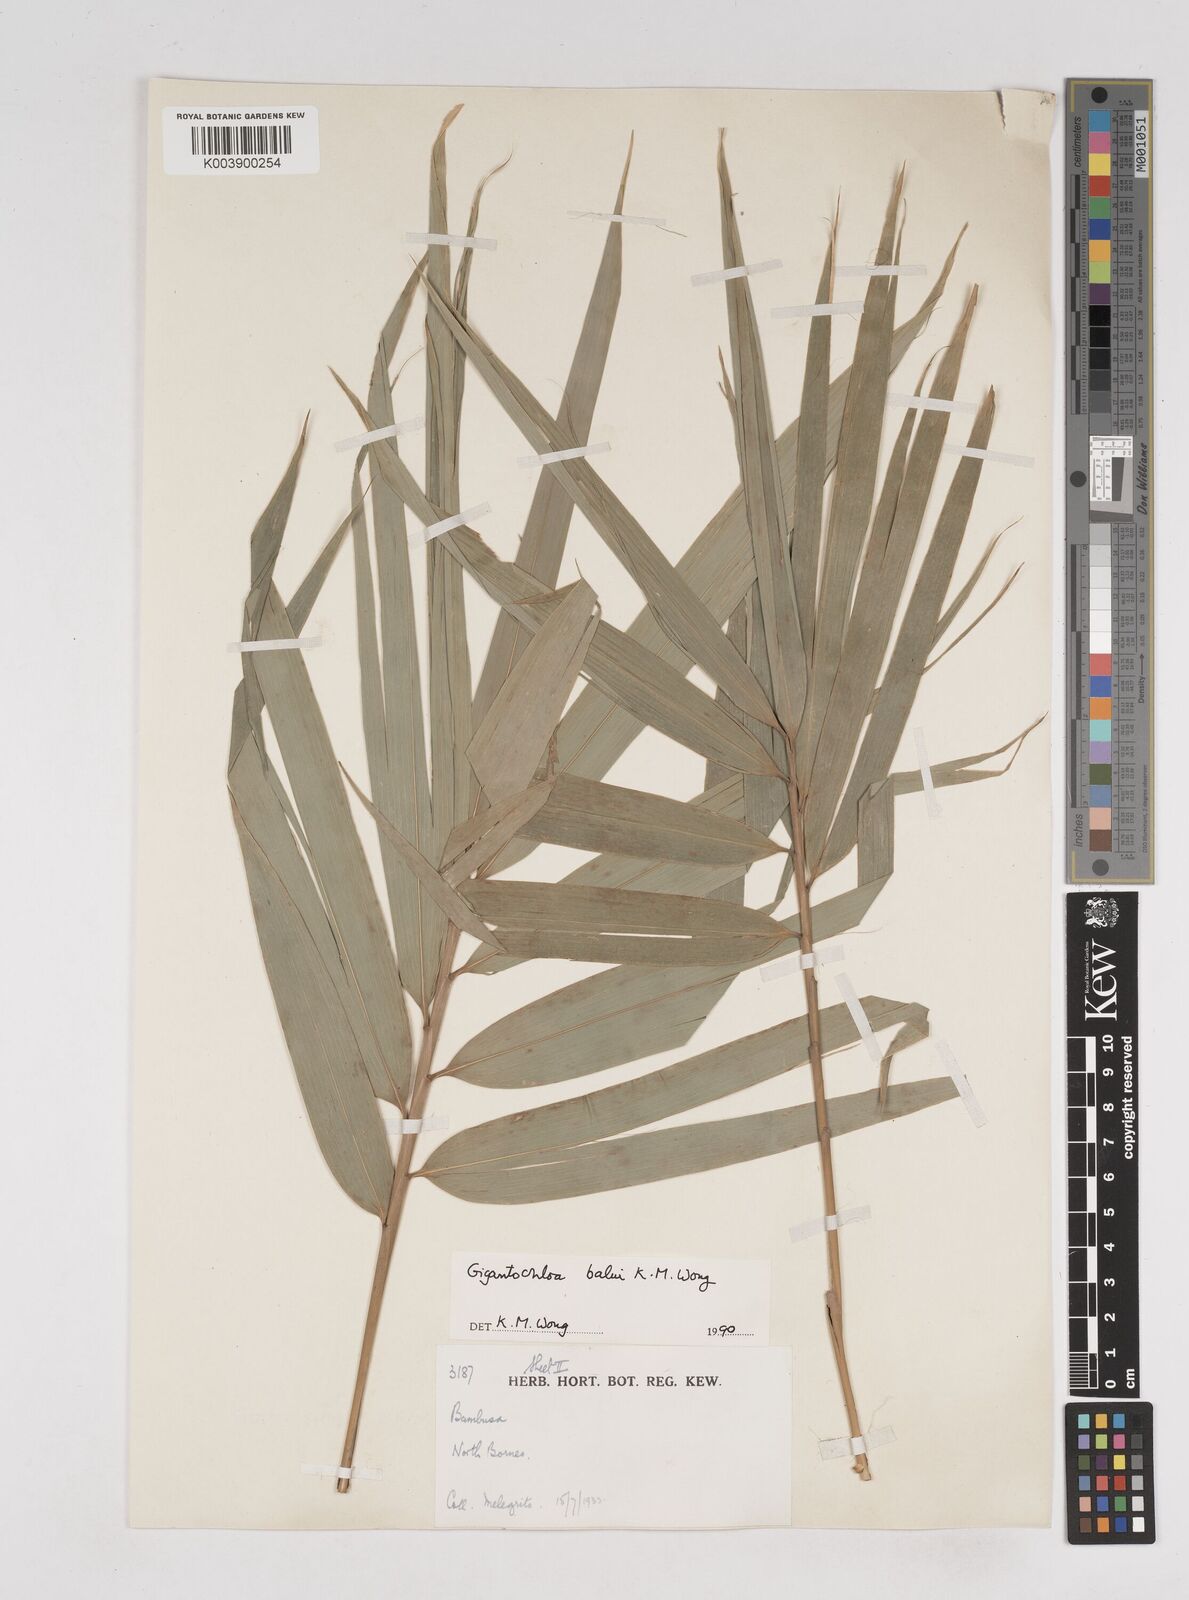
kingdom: Plantae
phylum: Tracheophyta
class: Liliopsida
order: Poales
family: Poaceae
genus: Gigantochloa
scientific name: Gigantochloa
